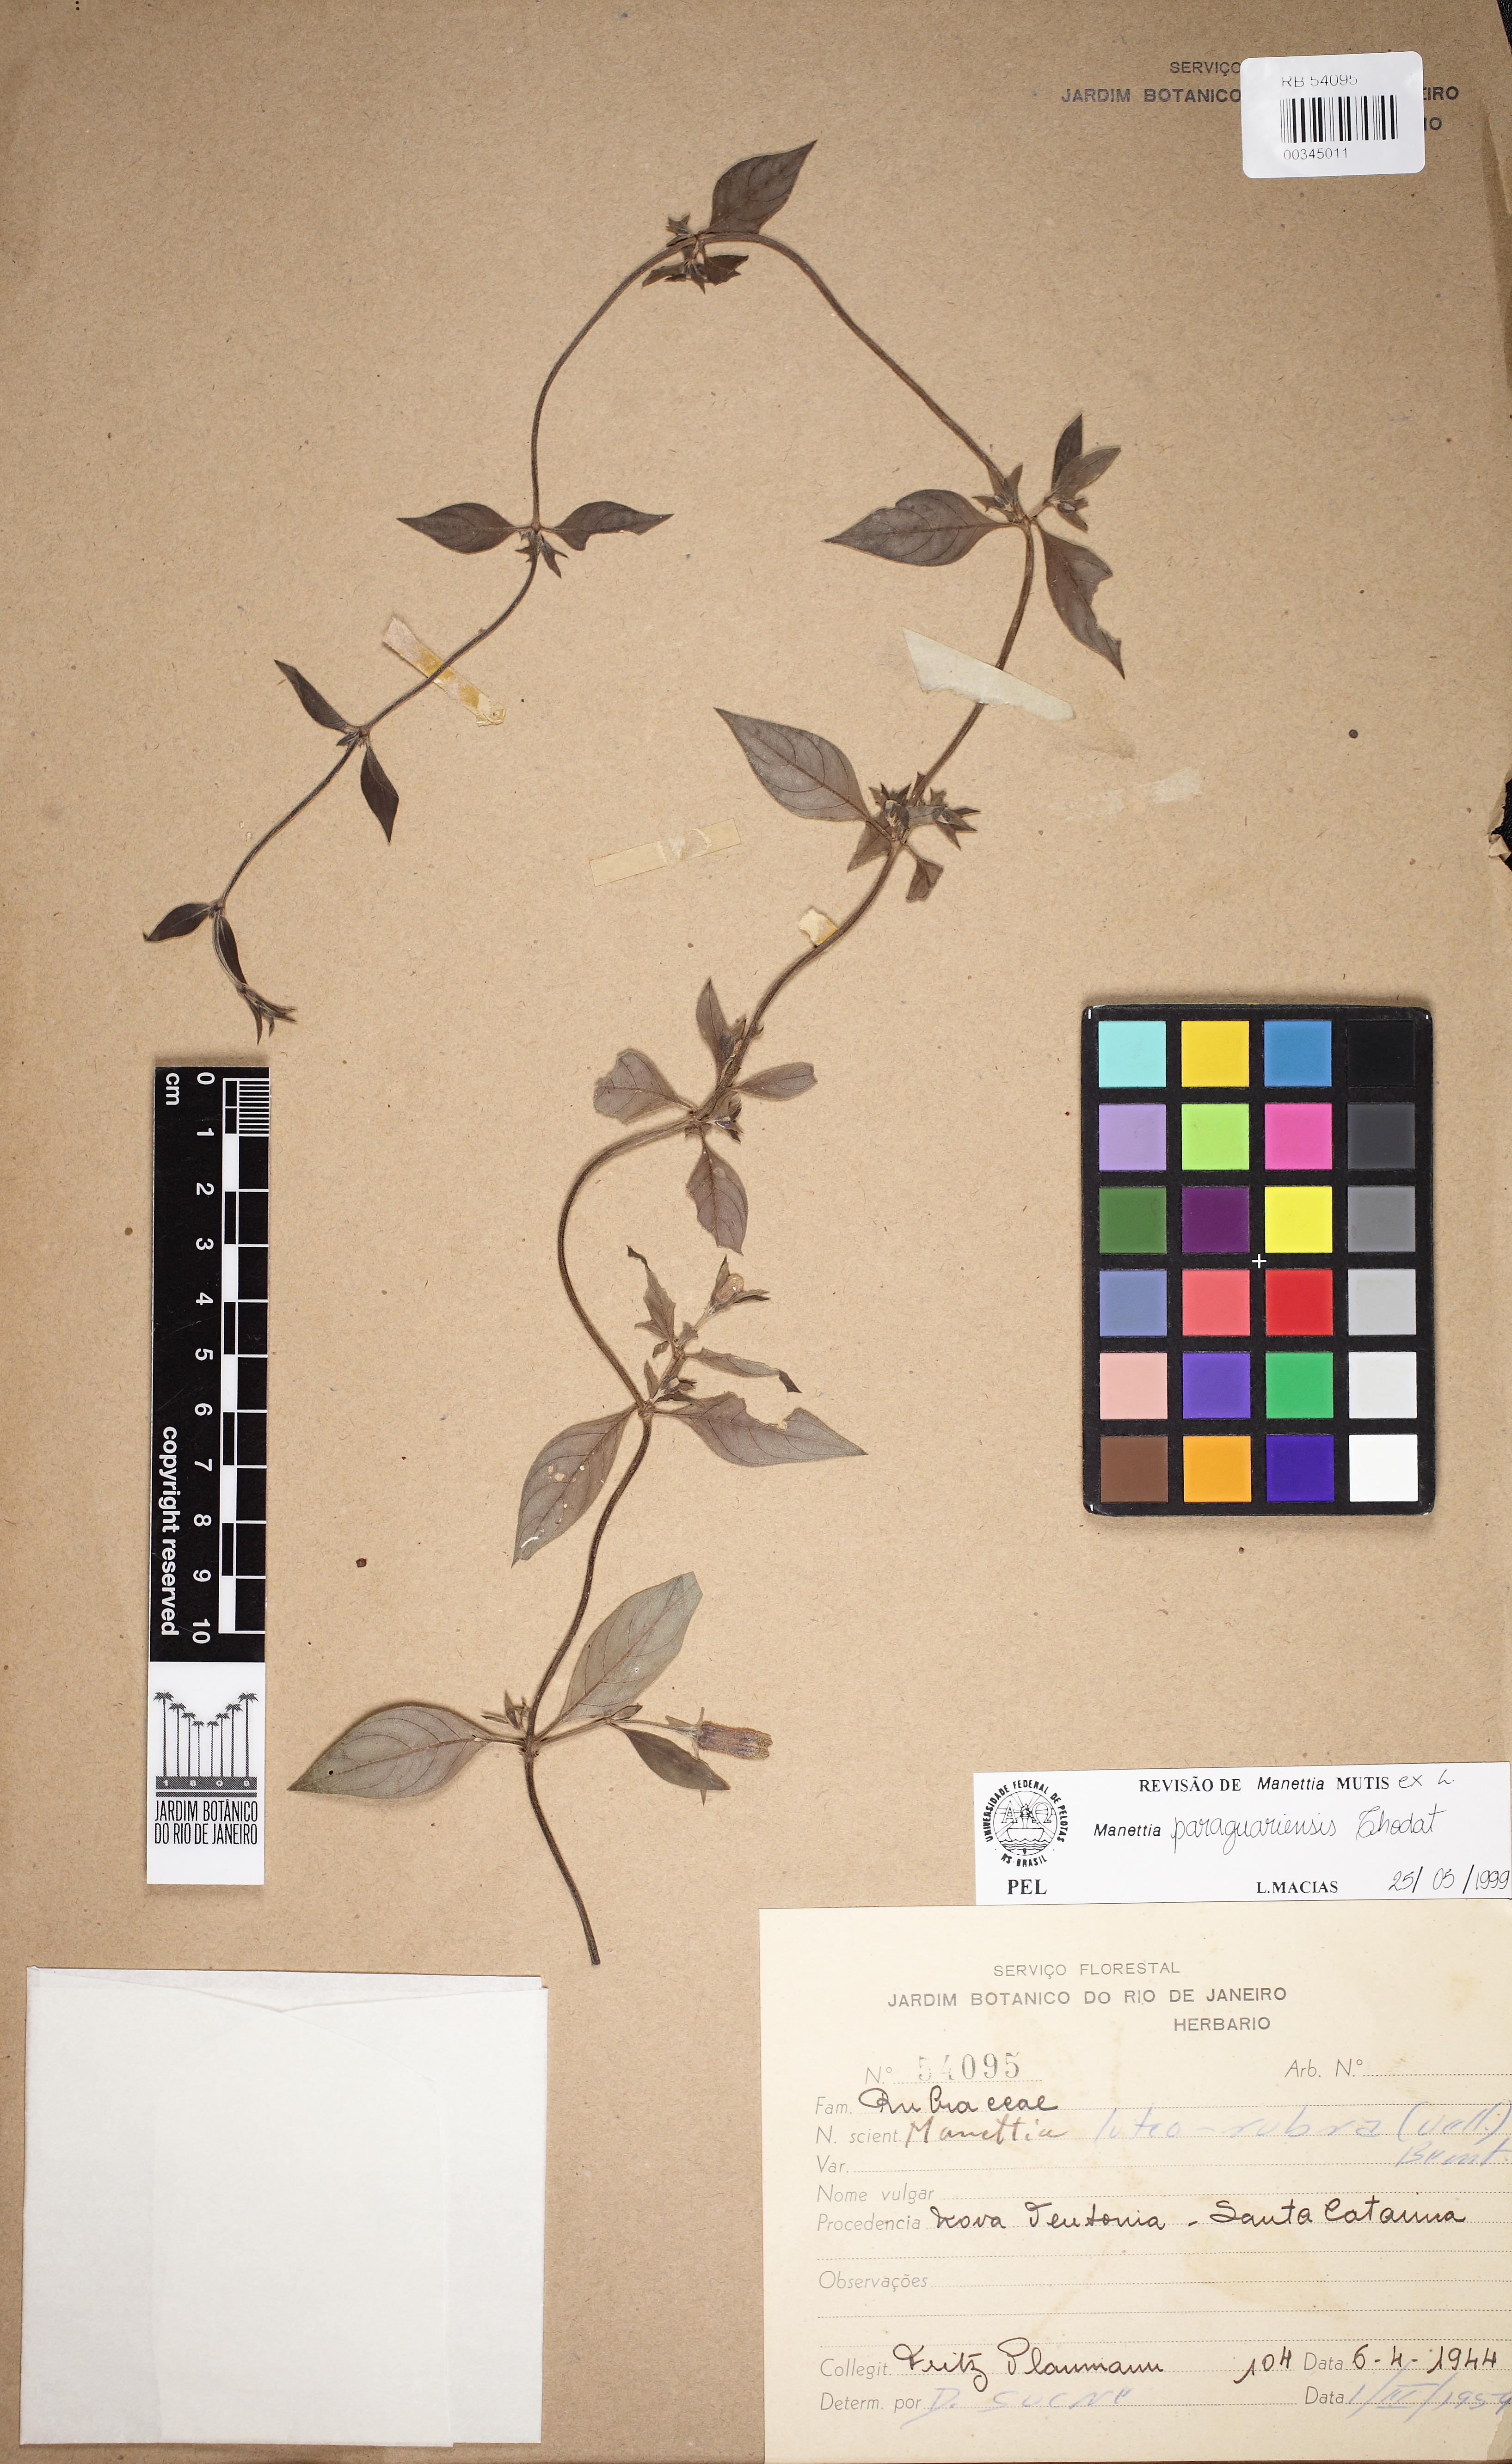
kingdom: Plantae
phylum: Tracheophyta
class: Magnoliopsida
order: Gentianales
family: Rubiaceae
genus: Manettia
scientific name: Manettia paraguariensis
